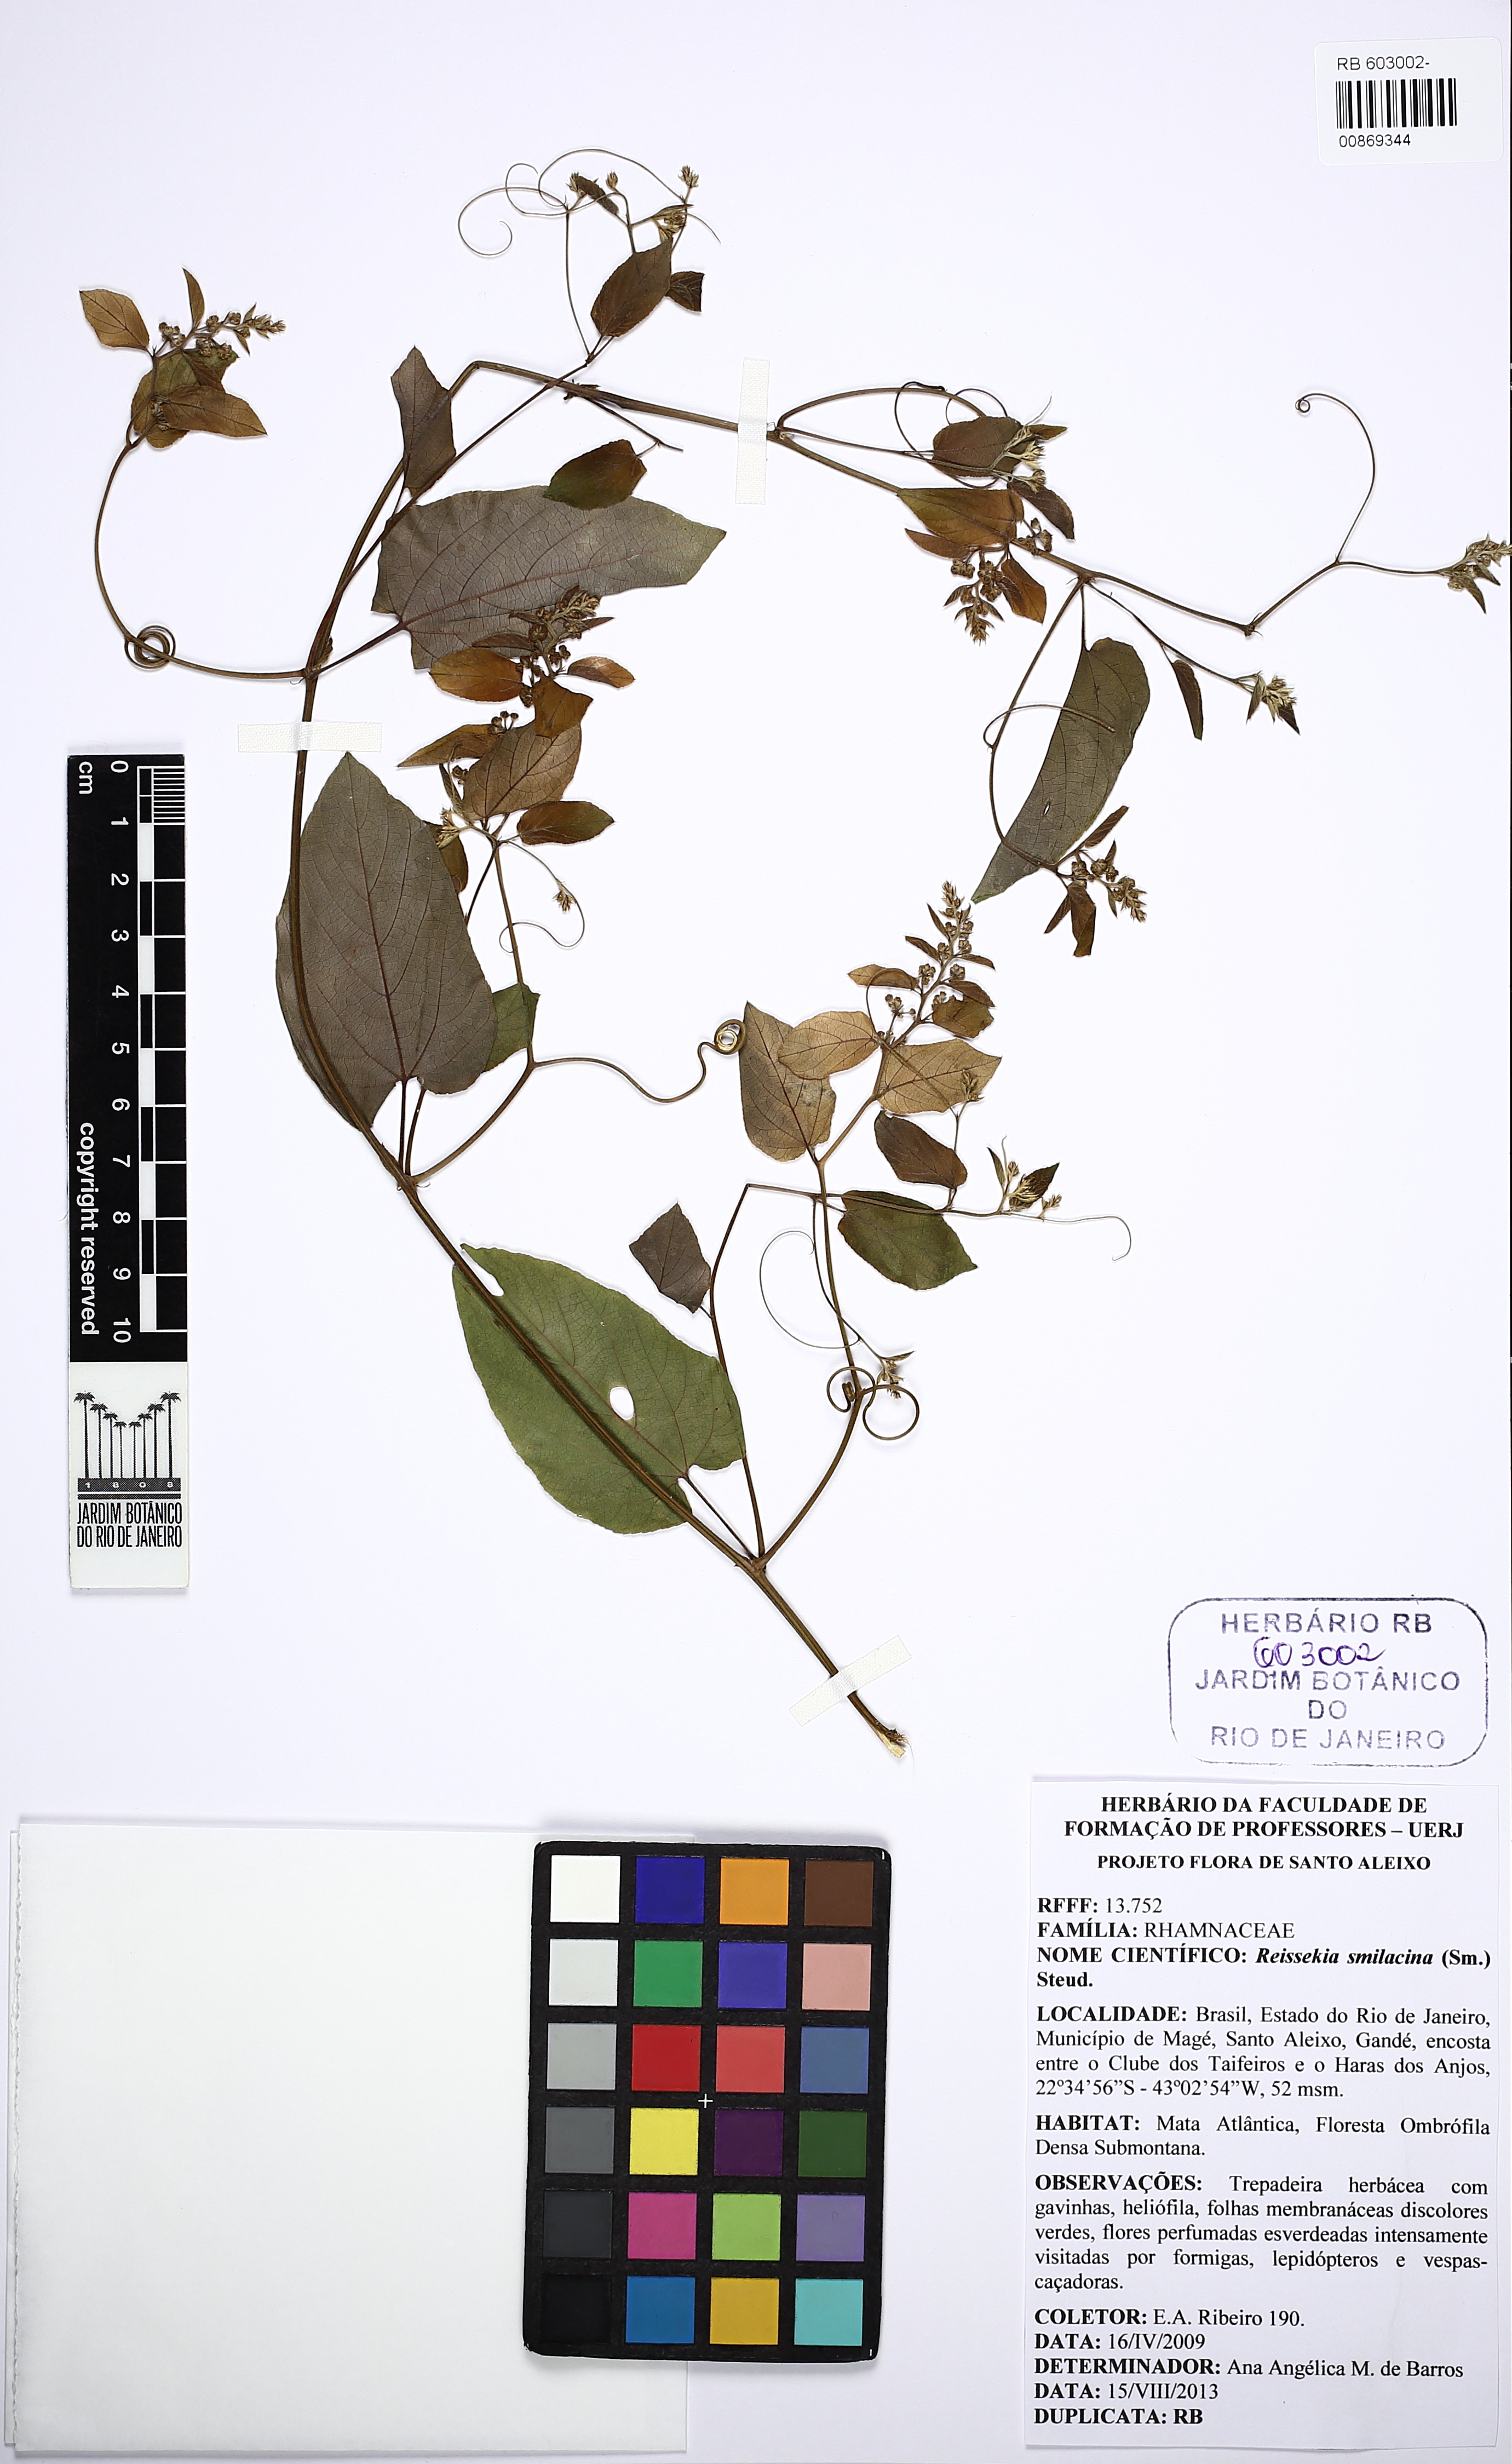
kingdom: Plantae
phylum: Tracheophyta
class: Magnoliopsida
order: Rosales
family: Rhamnaceae
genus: Reissekia
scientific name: Reissekia smilacina
